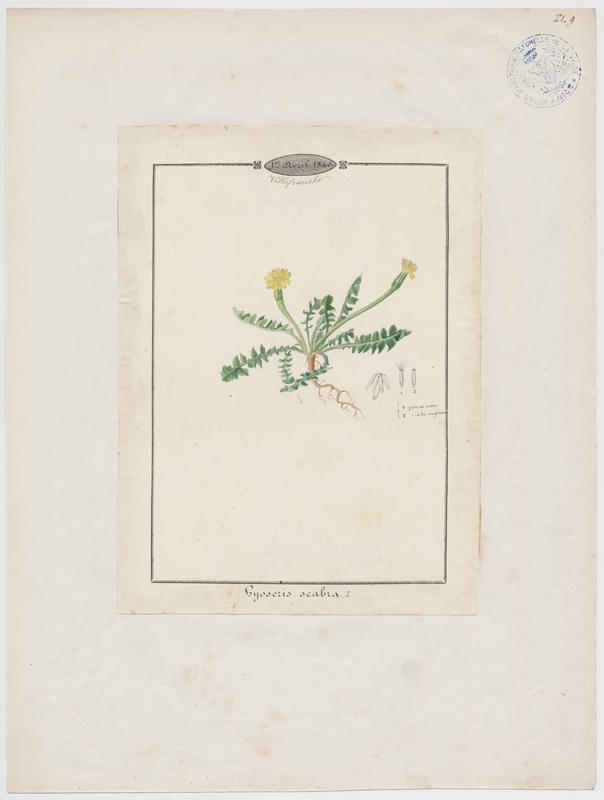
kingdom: Plantae
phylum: Tracheophyta
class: Magnoliopsida
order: Asterales
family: Asteraceae
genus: Hyoseris
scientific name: Hyoseris scabra
